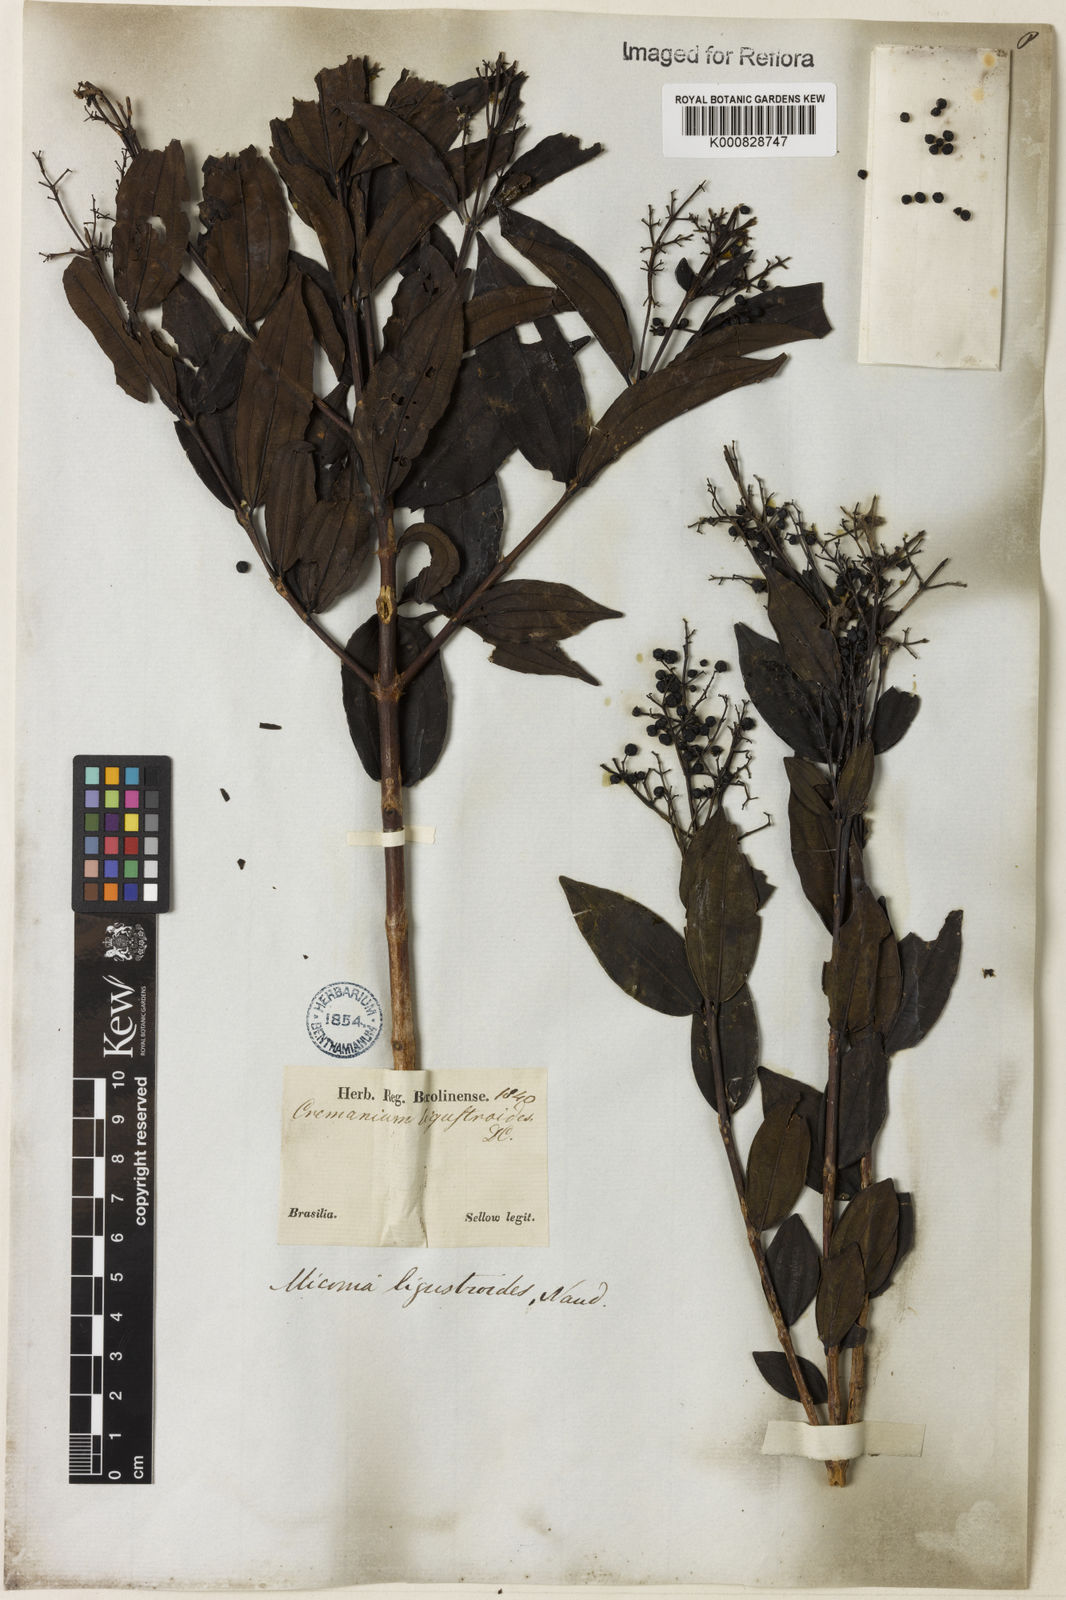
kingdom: Plantae
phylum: Tracheophyta
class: Magnoliopsida
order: Myrtales
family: Melastomataceae
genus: Miconia
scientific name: Miconia ligustroides
